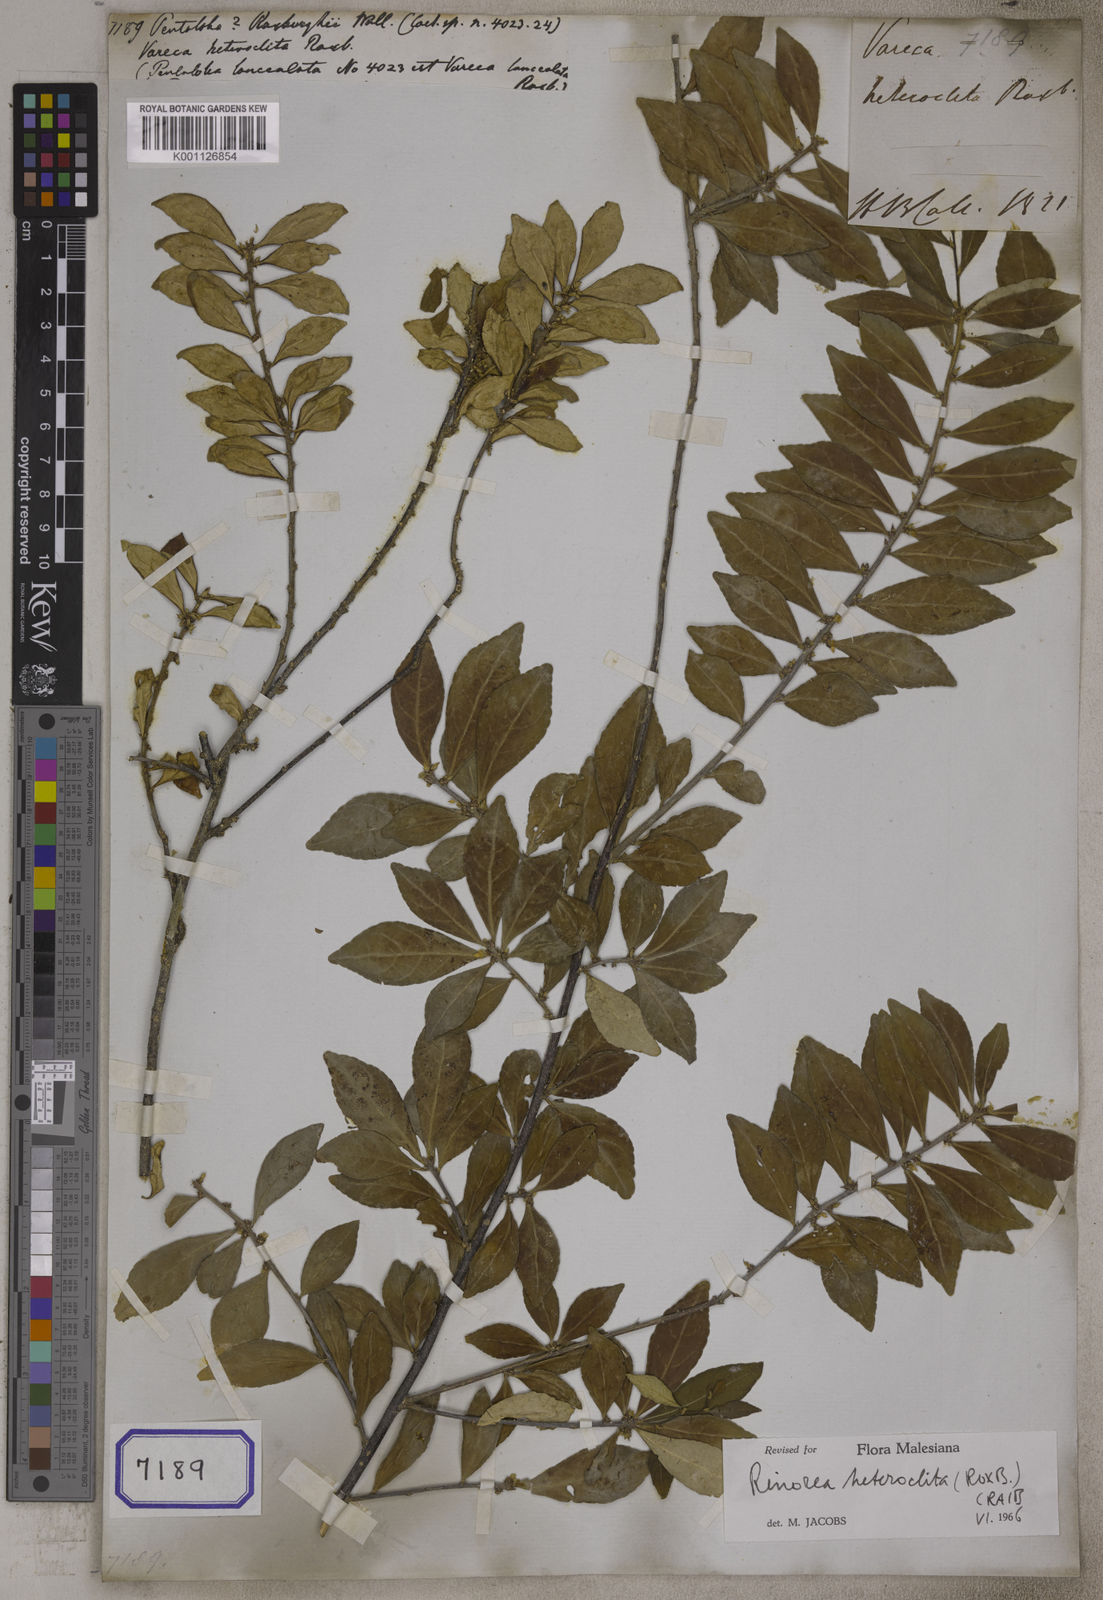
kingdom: Plantae
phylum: Tracheophyta
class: Magnoliopsida
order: Malpighiales
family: Violaceae
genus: Rinorea
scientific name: Rinorea
